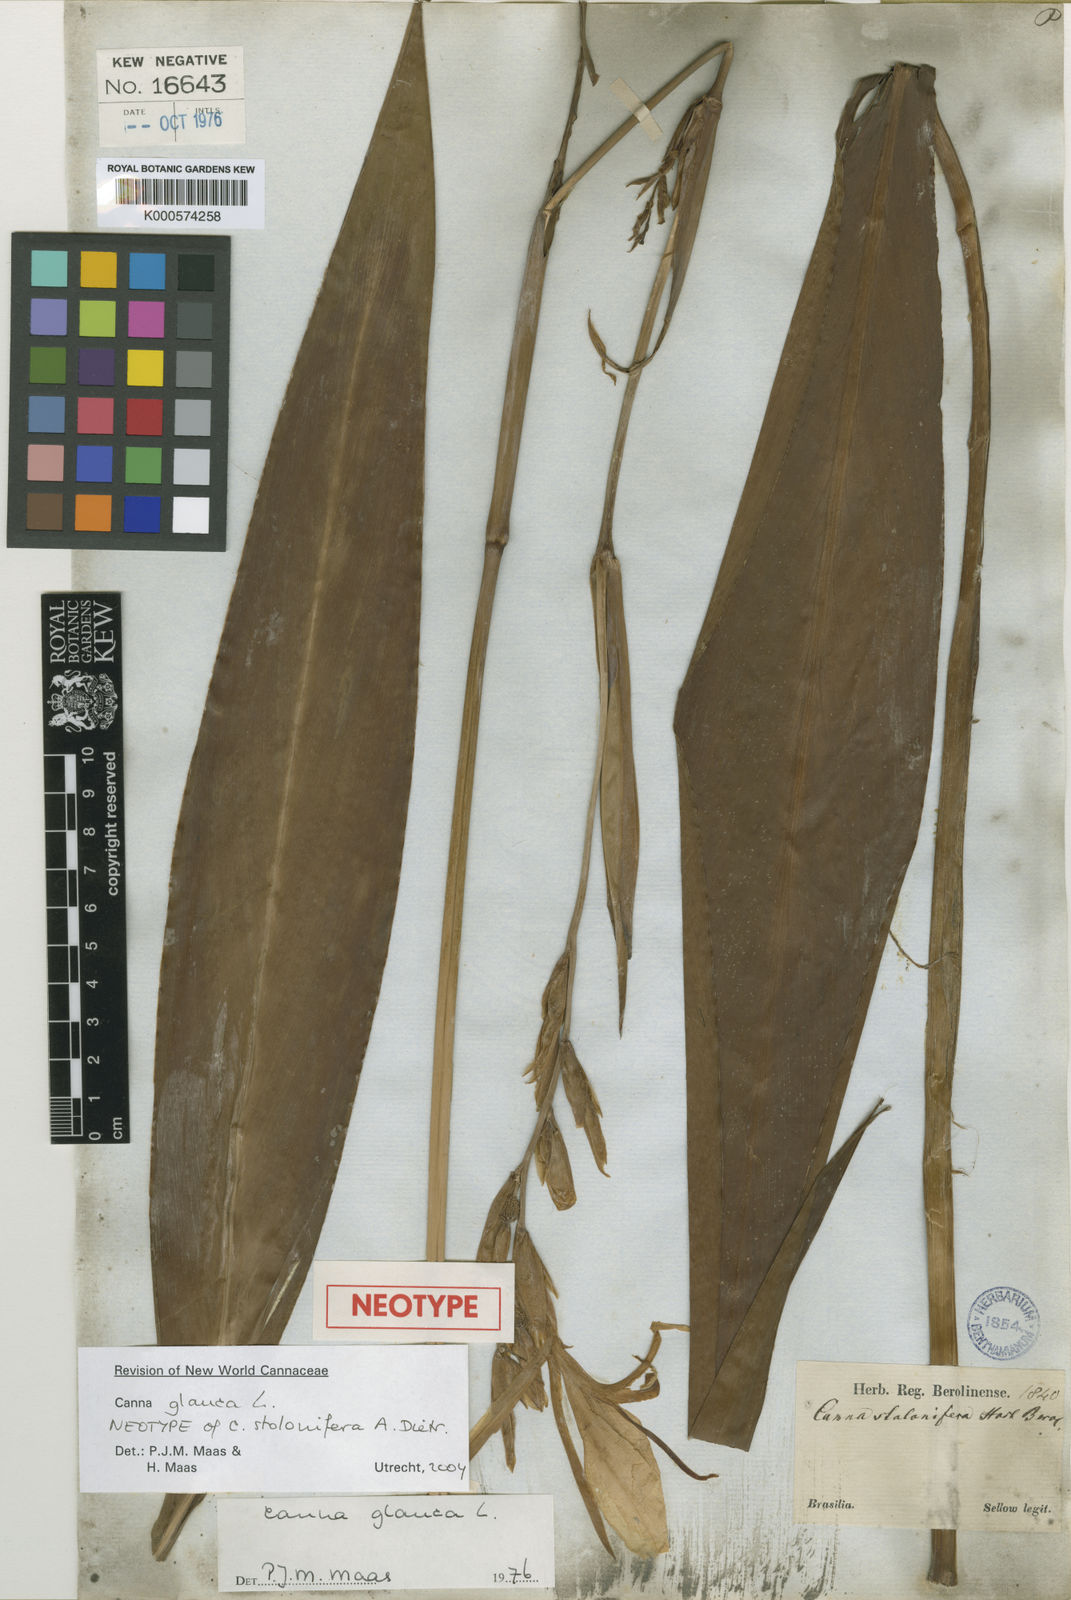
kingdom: Plantae
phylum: Tracheophyta
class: Liliopsida
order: Zingiberales
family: Cannaceae
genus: Canna
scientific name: Canna glauca
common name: Louisiana canna
